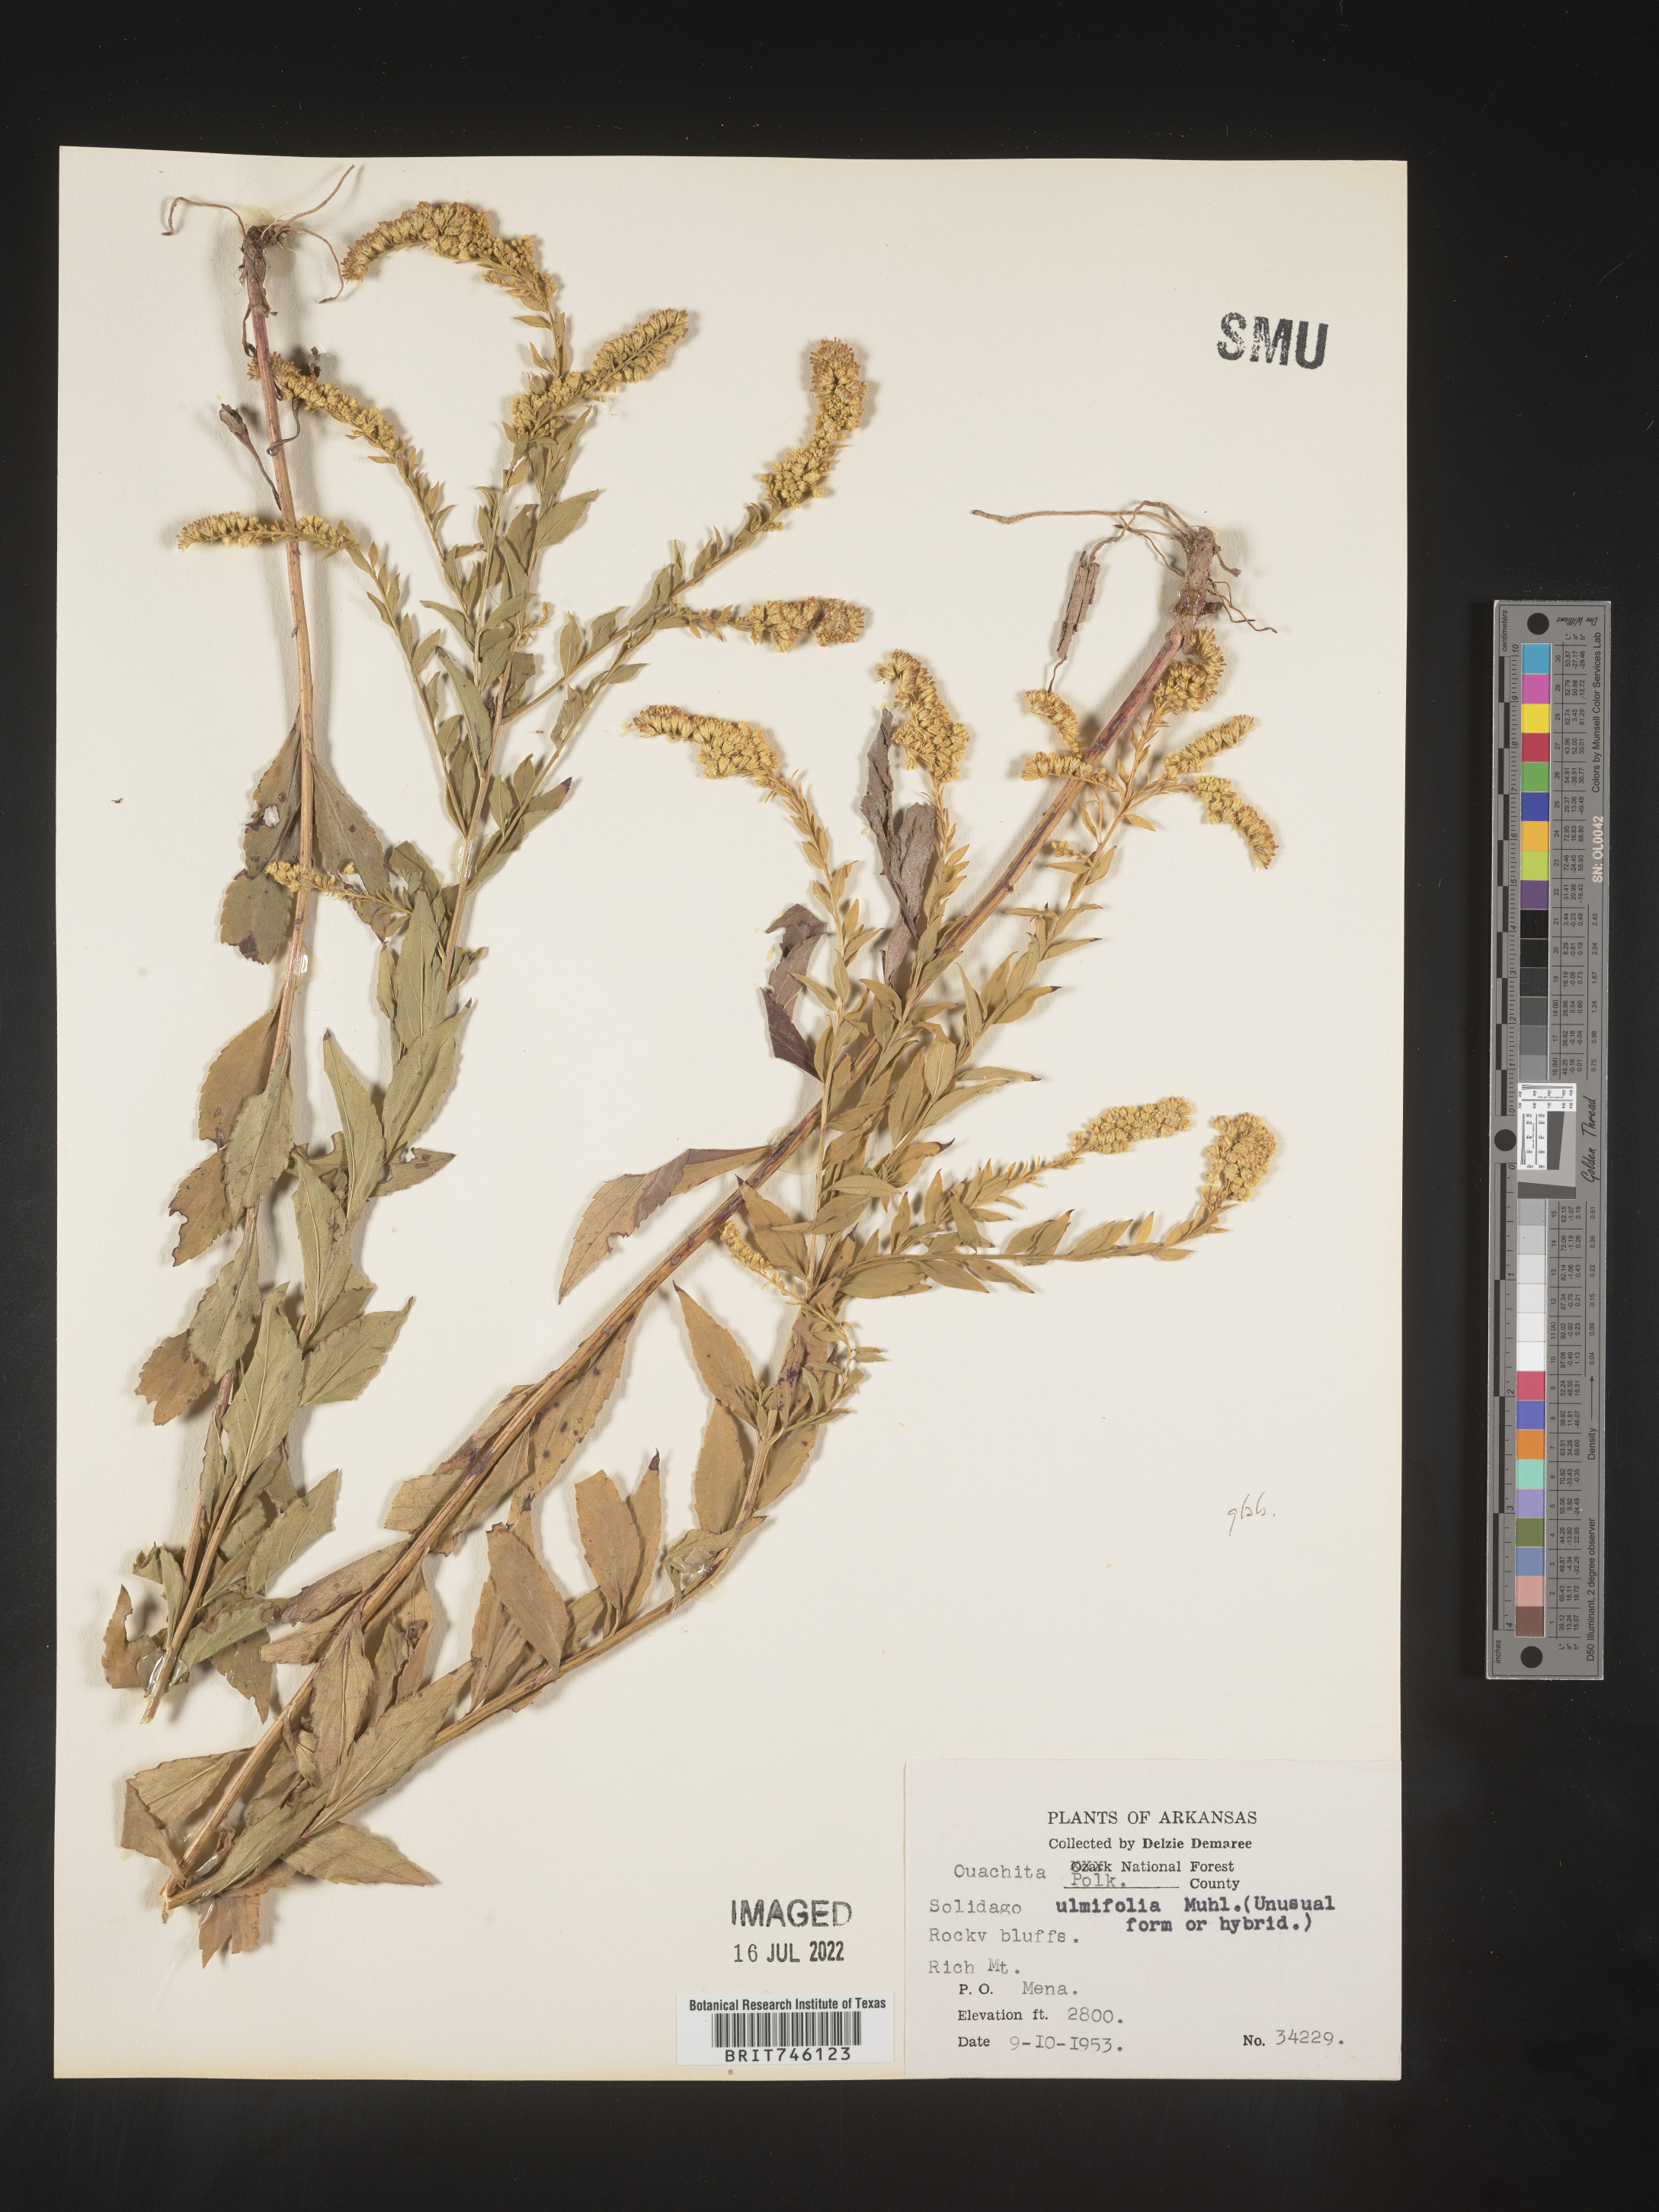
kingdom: Plantae
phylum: Tracheophyta
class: Magnoliopsida
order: Asterales
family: Asteraceae
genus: Solidago
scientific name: Solidago delicatula
